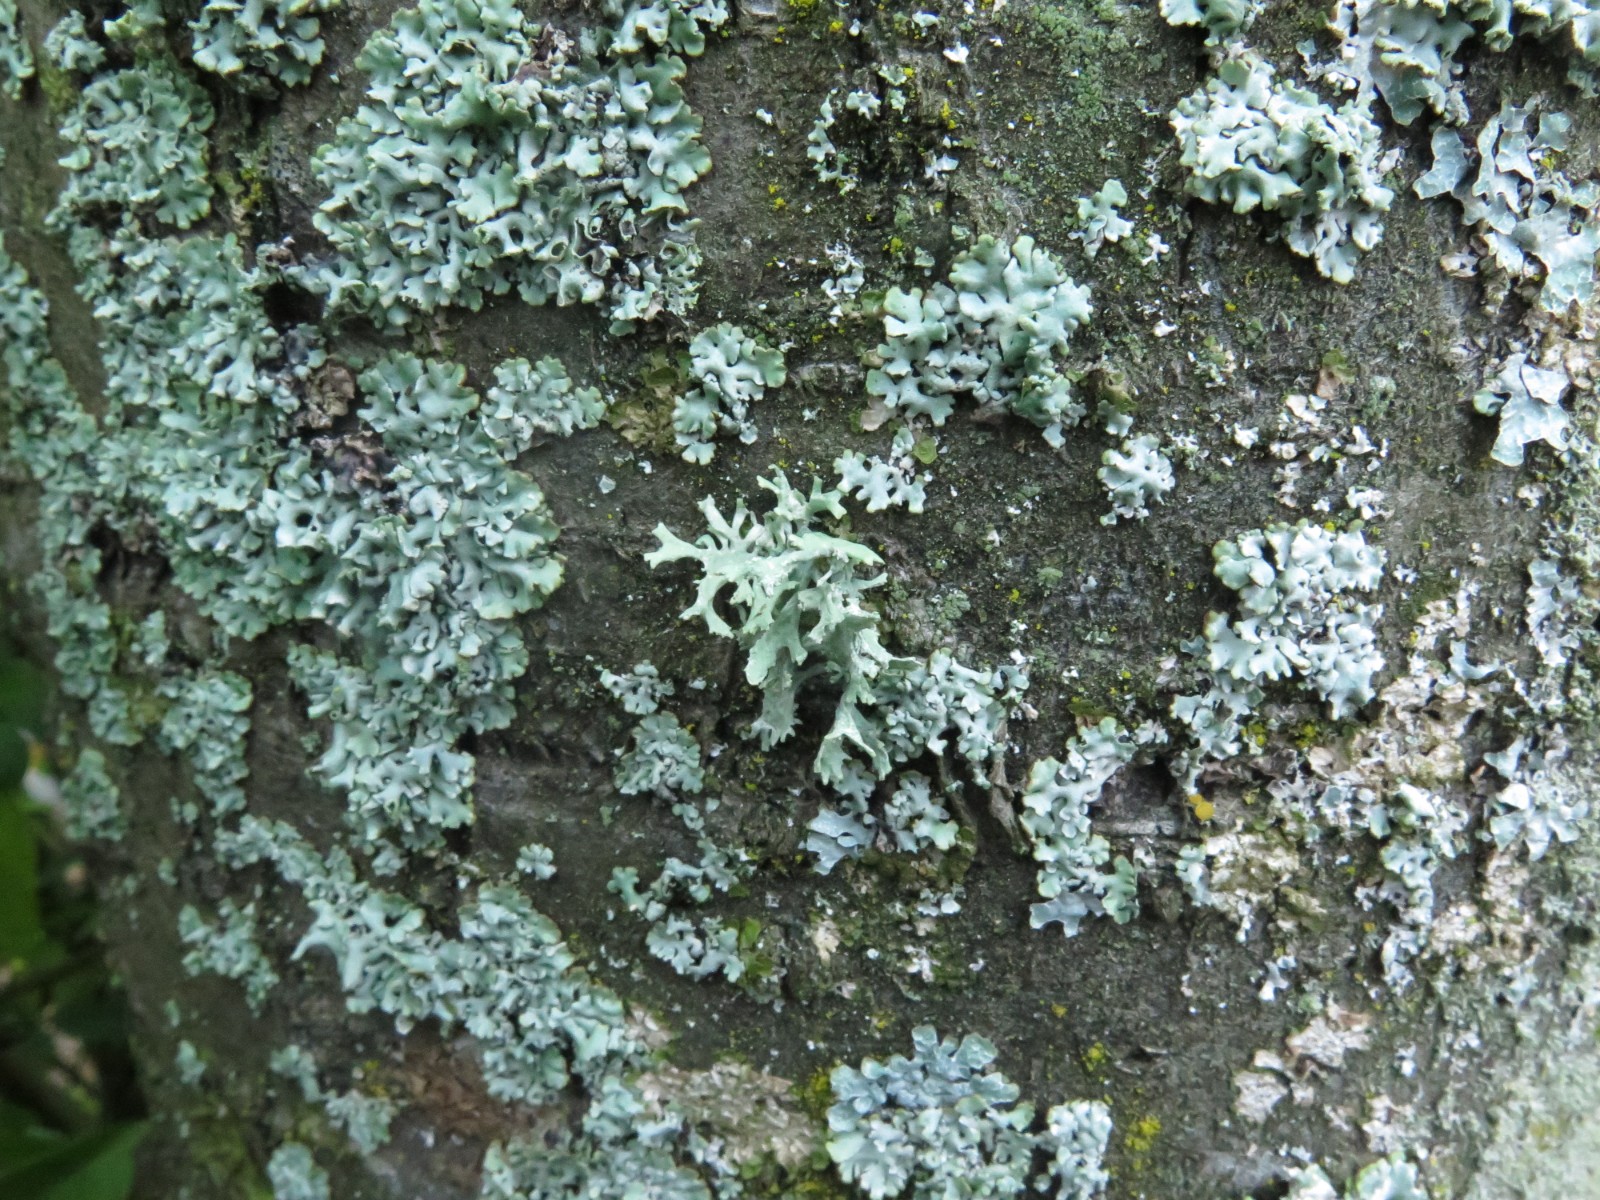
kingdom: Fungi
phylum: Ascomycota
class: Lecanoromycetes
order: Lecanorales
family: Parmeliaceae
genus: Evernia
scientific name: Evernia prunastri
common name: almindelig slåenlav
